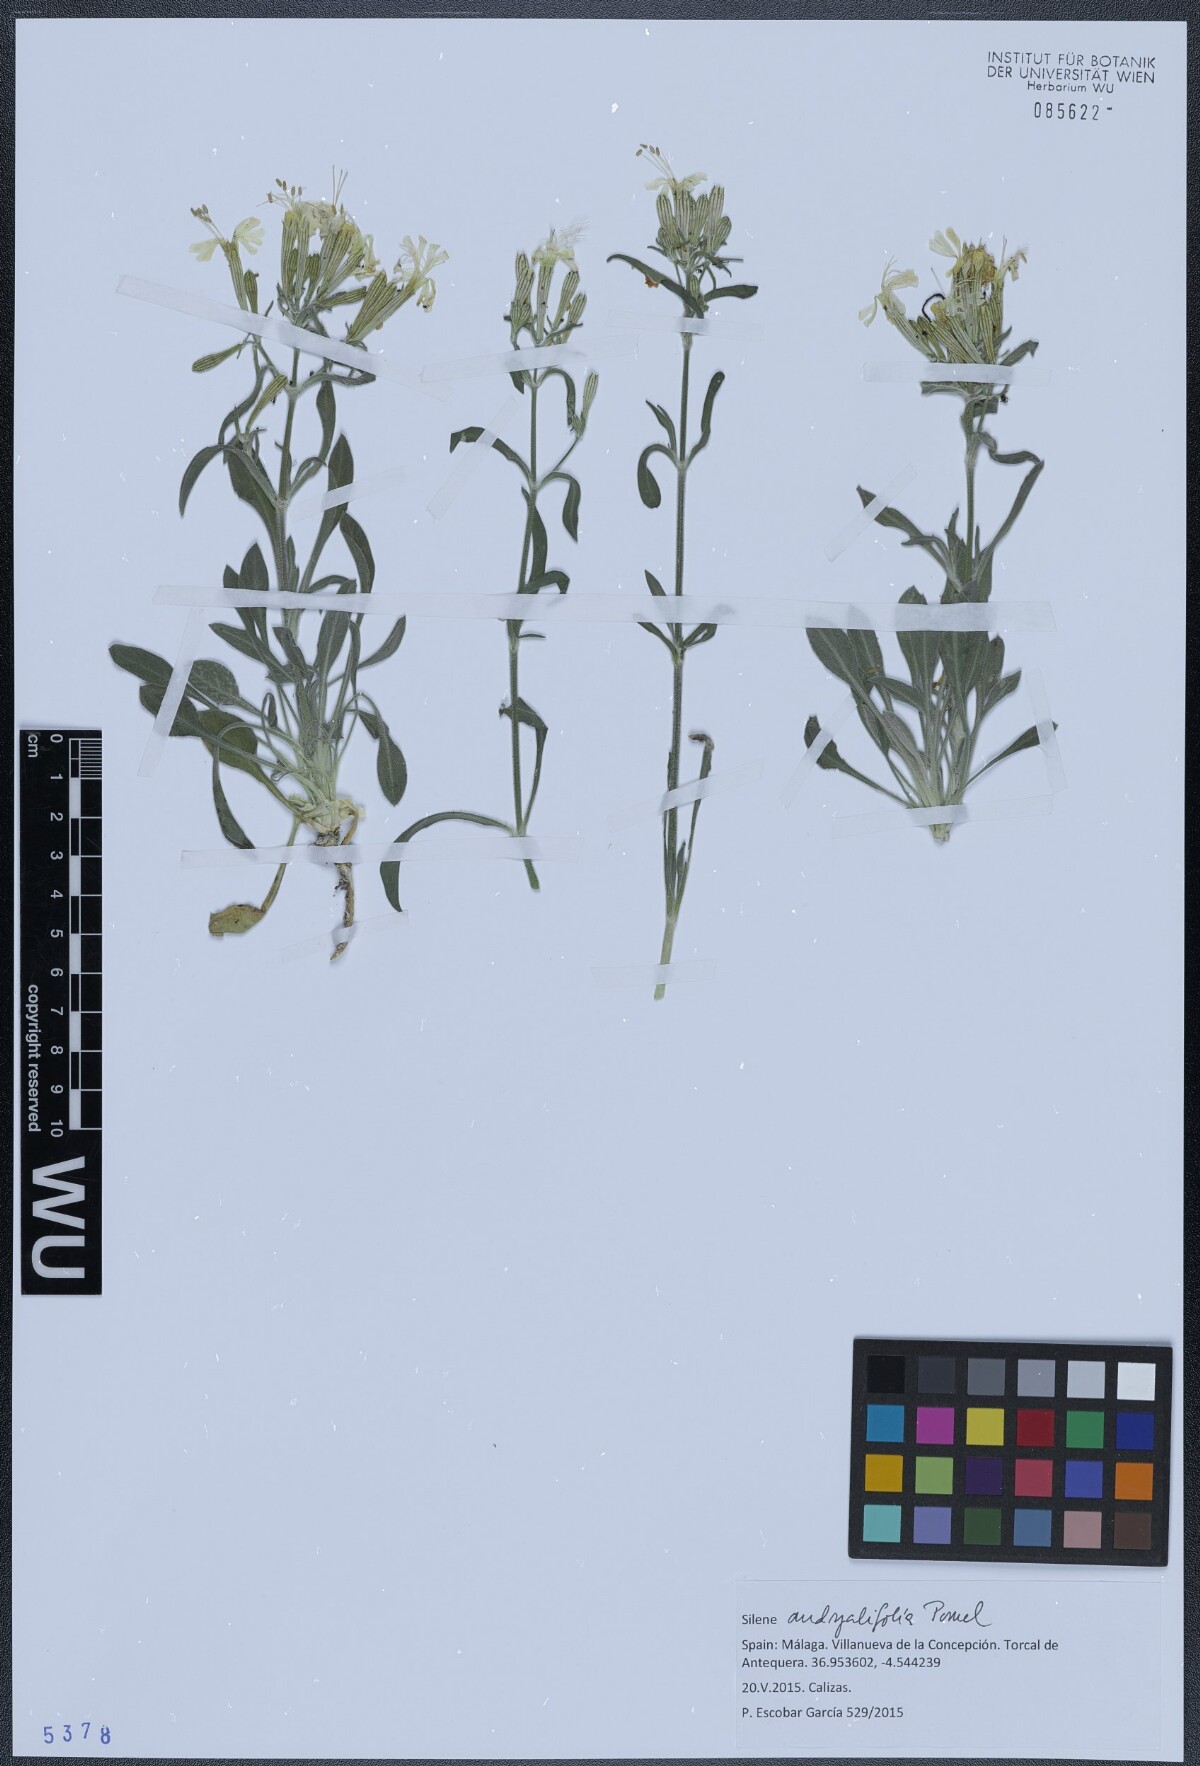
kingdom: Plantae
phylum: Tracheophyta
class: Magnoliopsida
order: Caryophyllales
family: Caryophyllaceae
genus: Silene
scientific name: Silene andryalifolia
